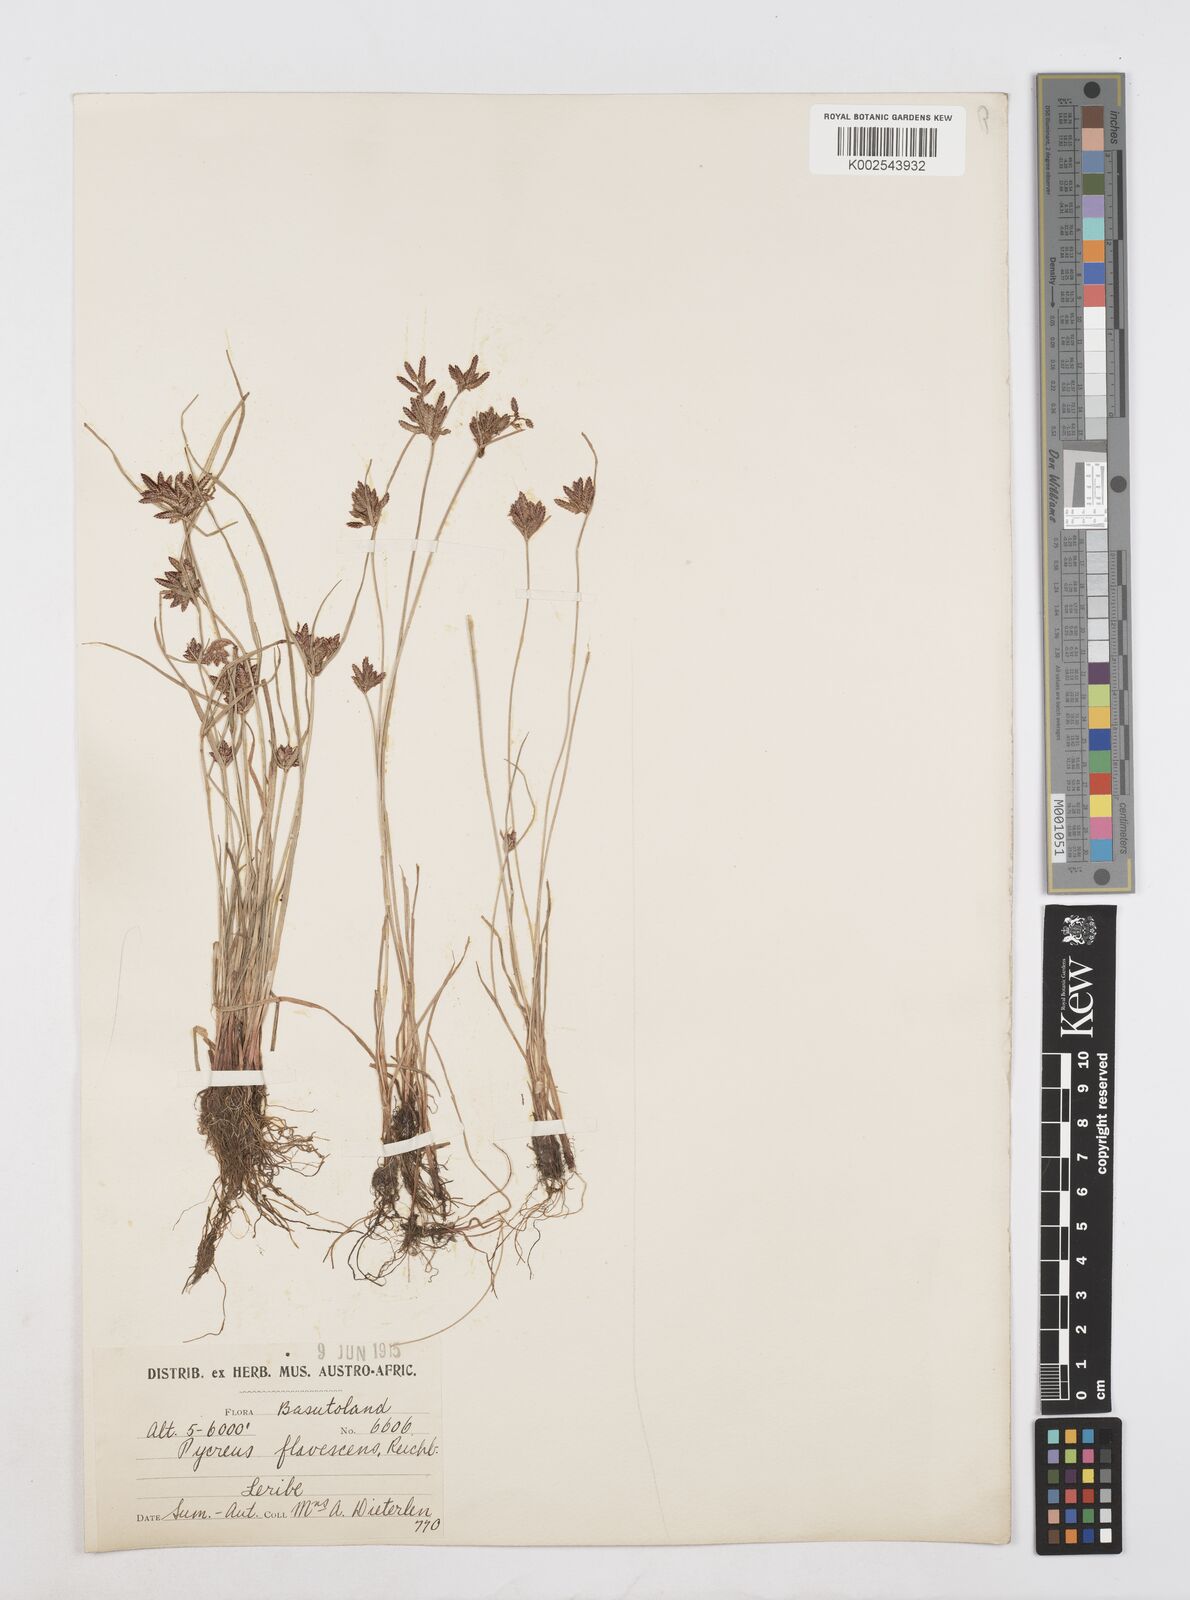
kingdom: Plantae
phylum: Tracheophyta
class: Liliopsida
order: Poales
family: Cyperaceae
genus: Cyperus
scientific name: Cyperus flavescens
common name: Yellow galingale
